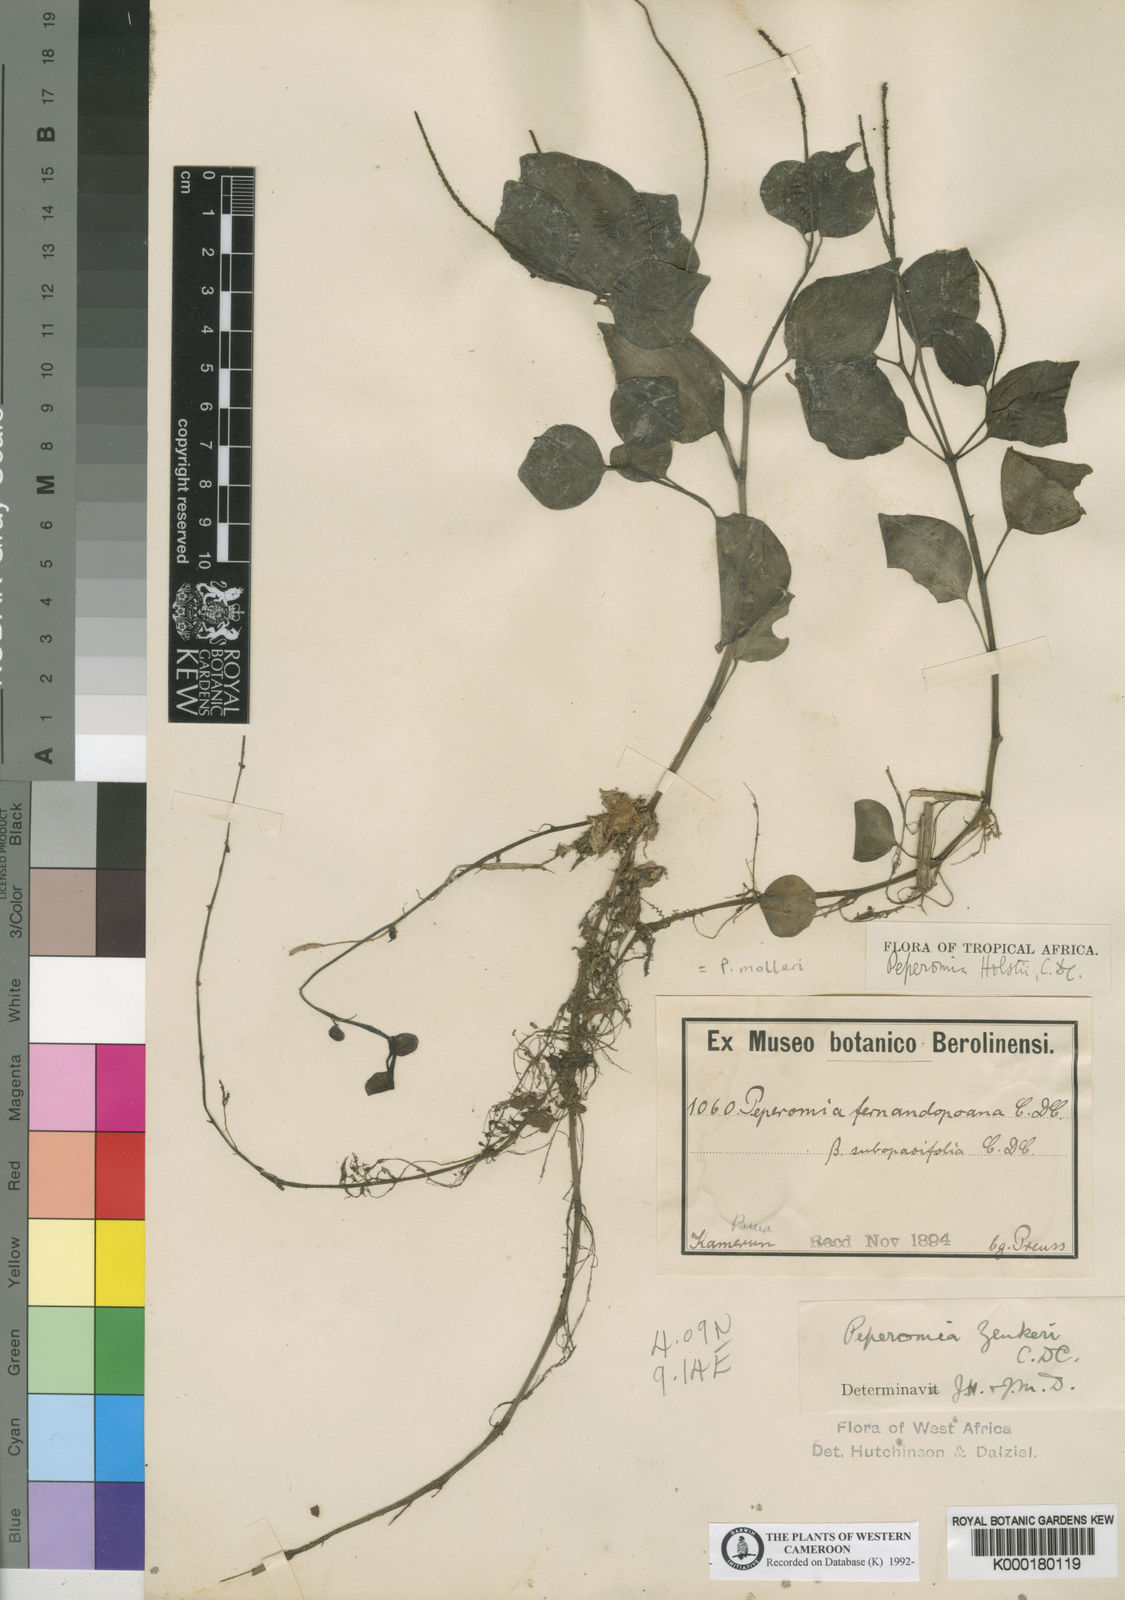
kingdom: Plantae
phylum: Tracheophyta
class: Magnoliopsida
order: Piperales
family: Piperaceae
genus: Peperomia
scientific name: Peperomia molleri
